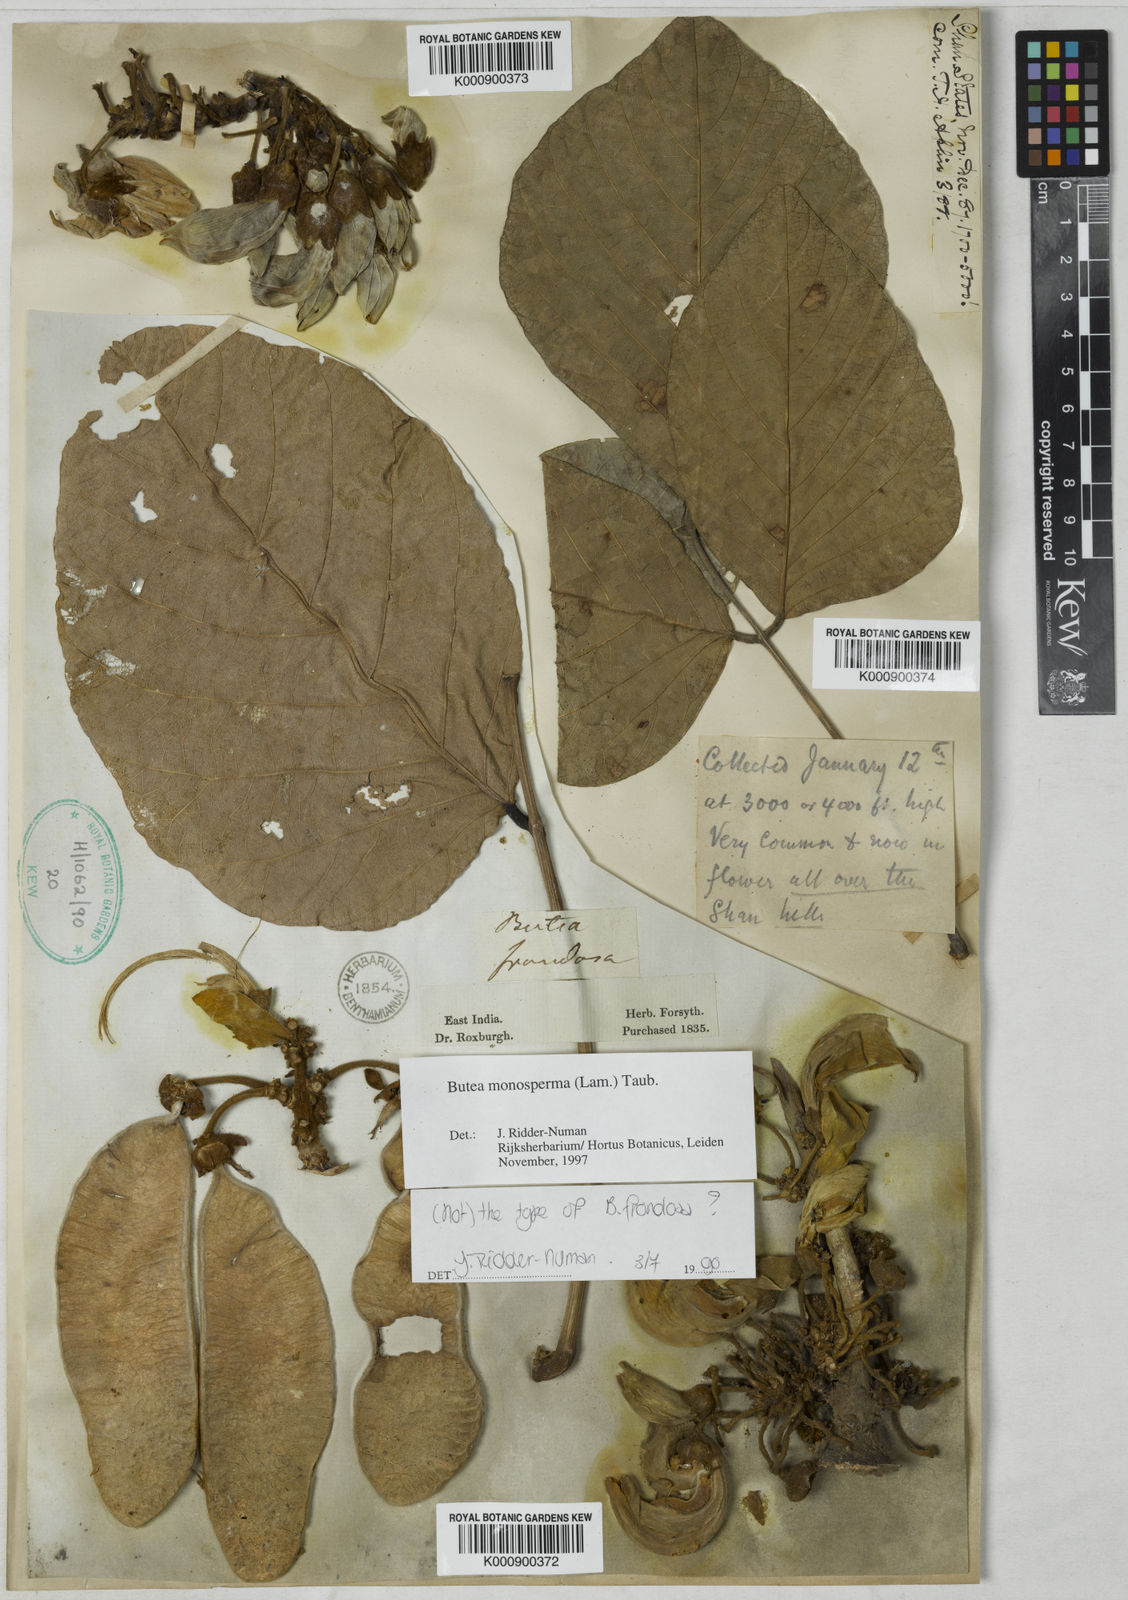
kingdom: Plantae
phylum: Tracheophyta
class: Magnoliopsida
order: Fabales
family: Fabaceae
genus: Butea
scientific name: Butea
